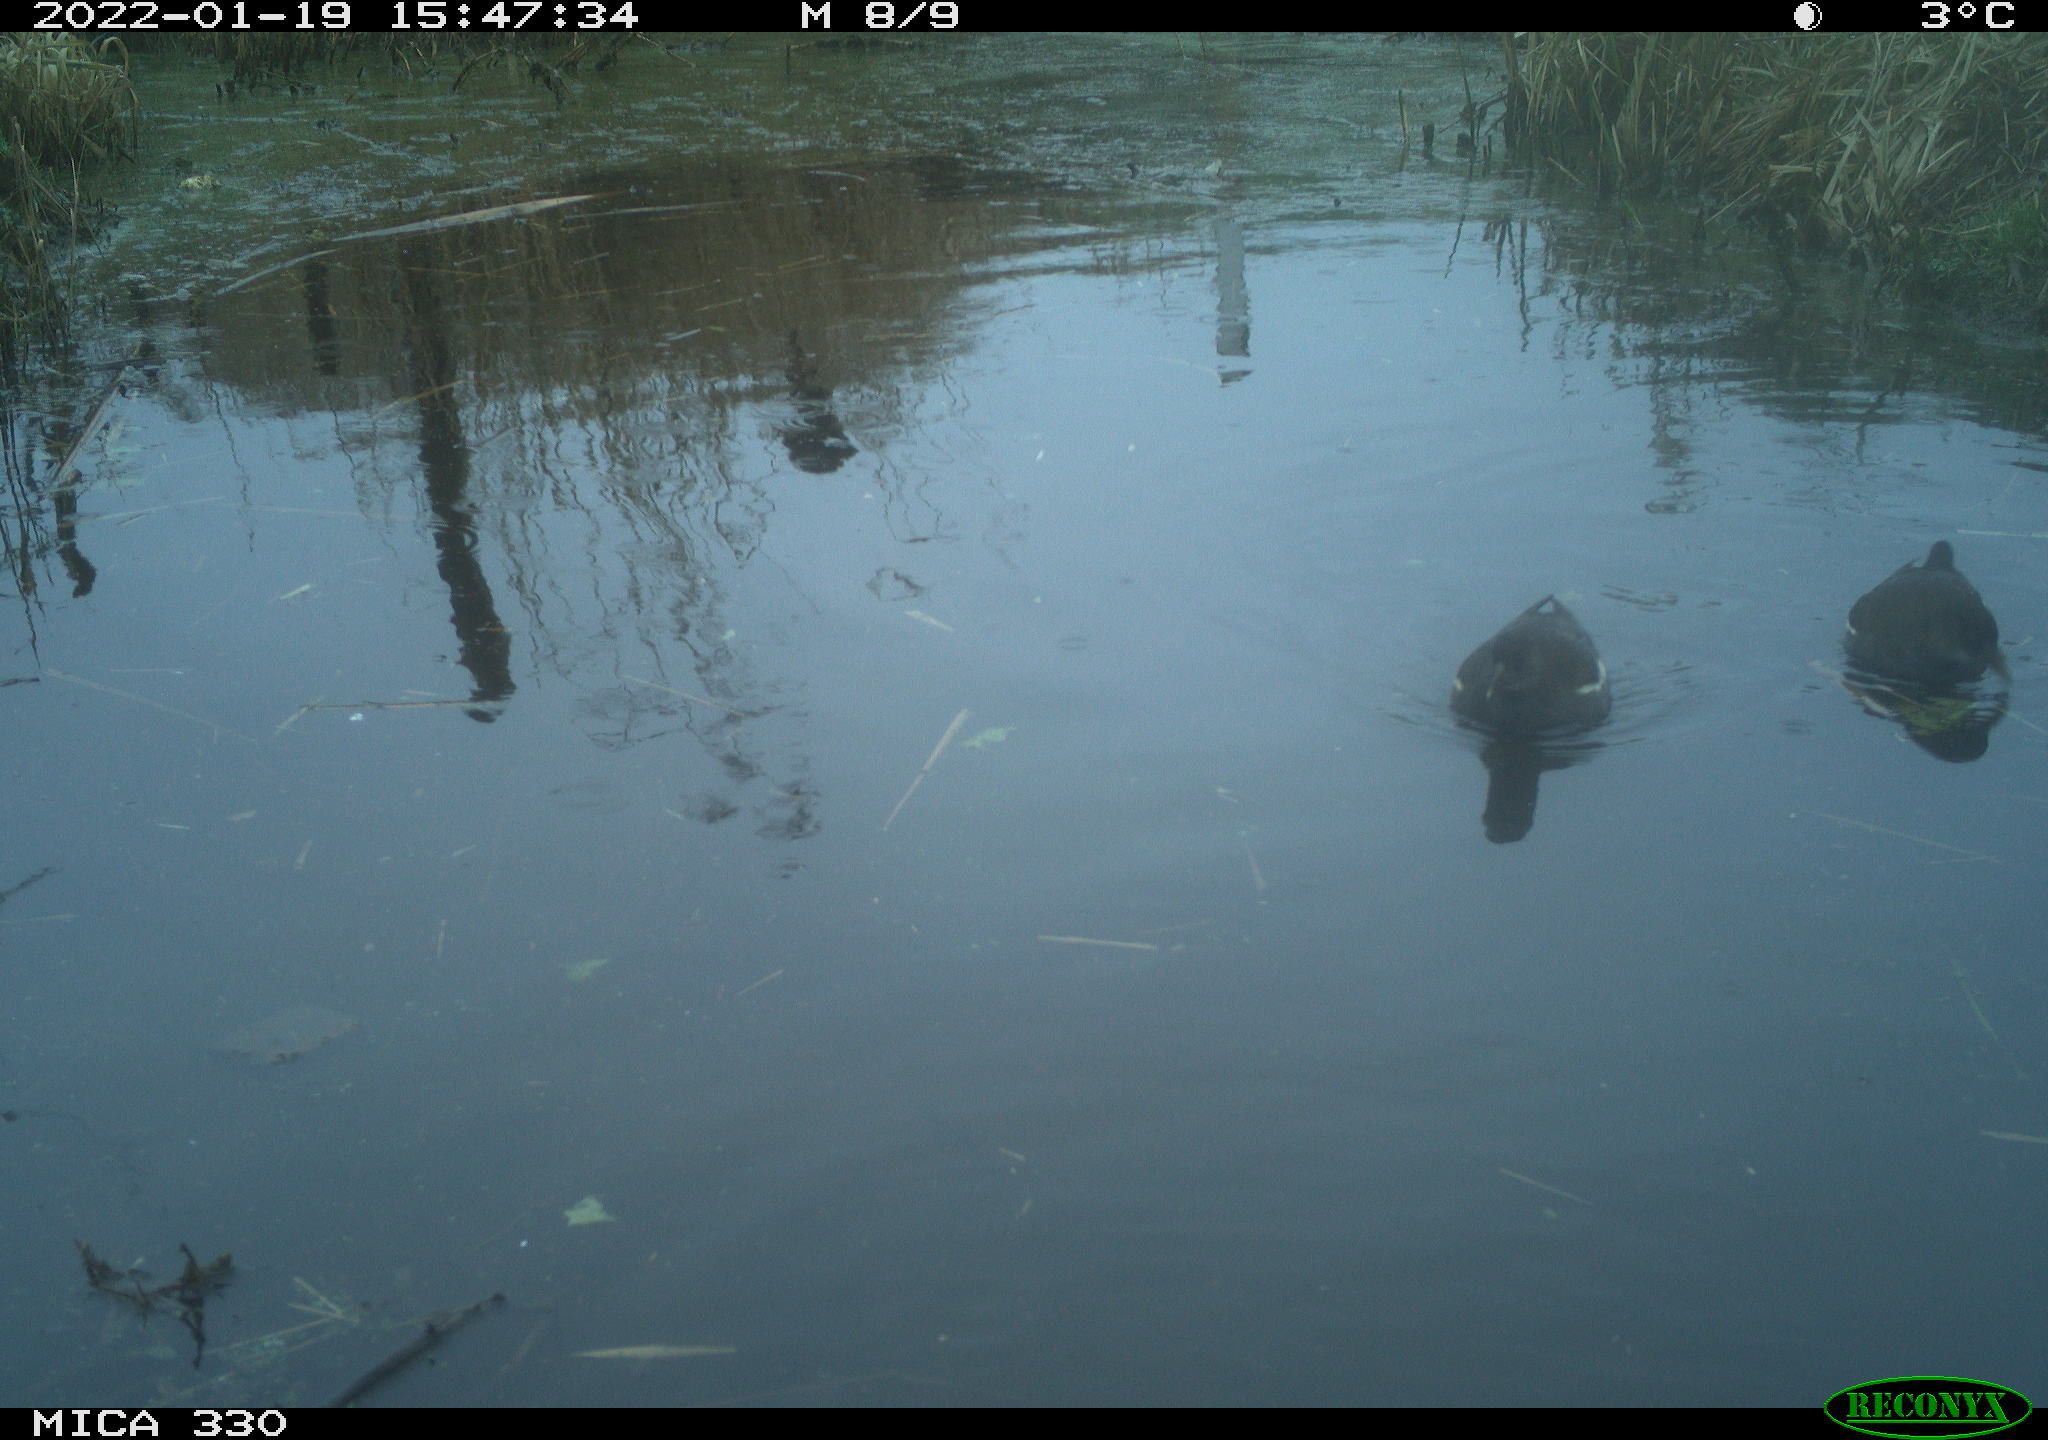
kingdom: Animalia
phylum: Chordata
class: Aves
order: Gruiformes
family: Rallidae
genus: Gallinula
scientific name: Gallinula chloropus
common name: Common moorhen
